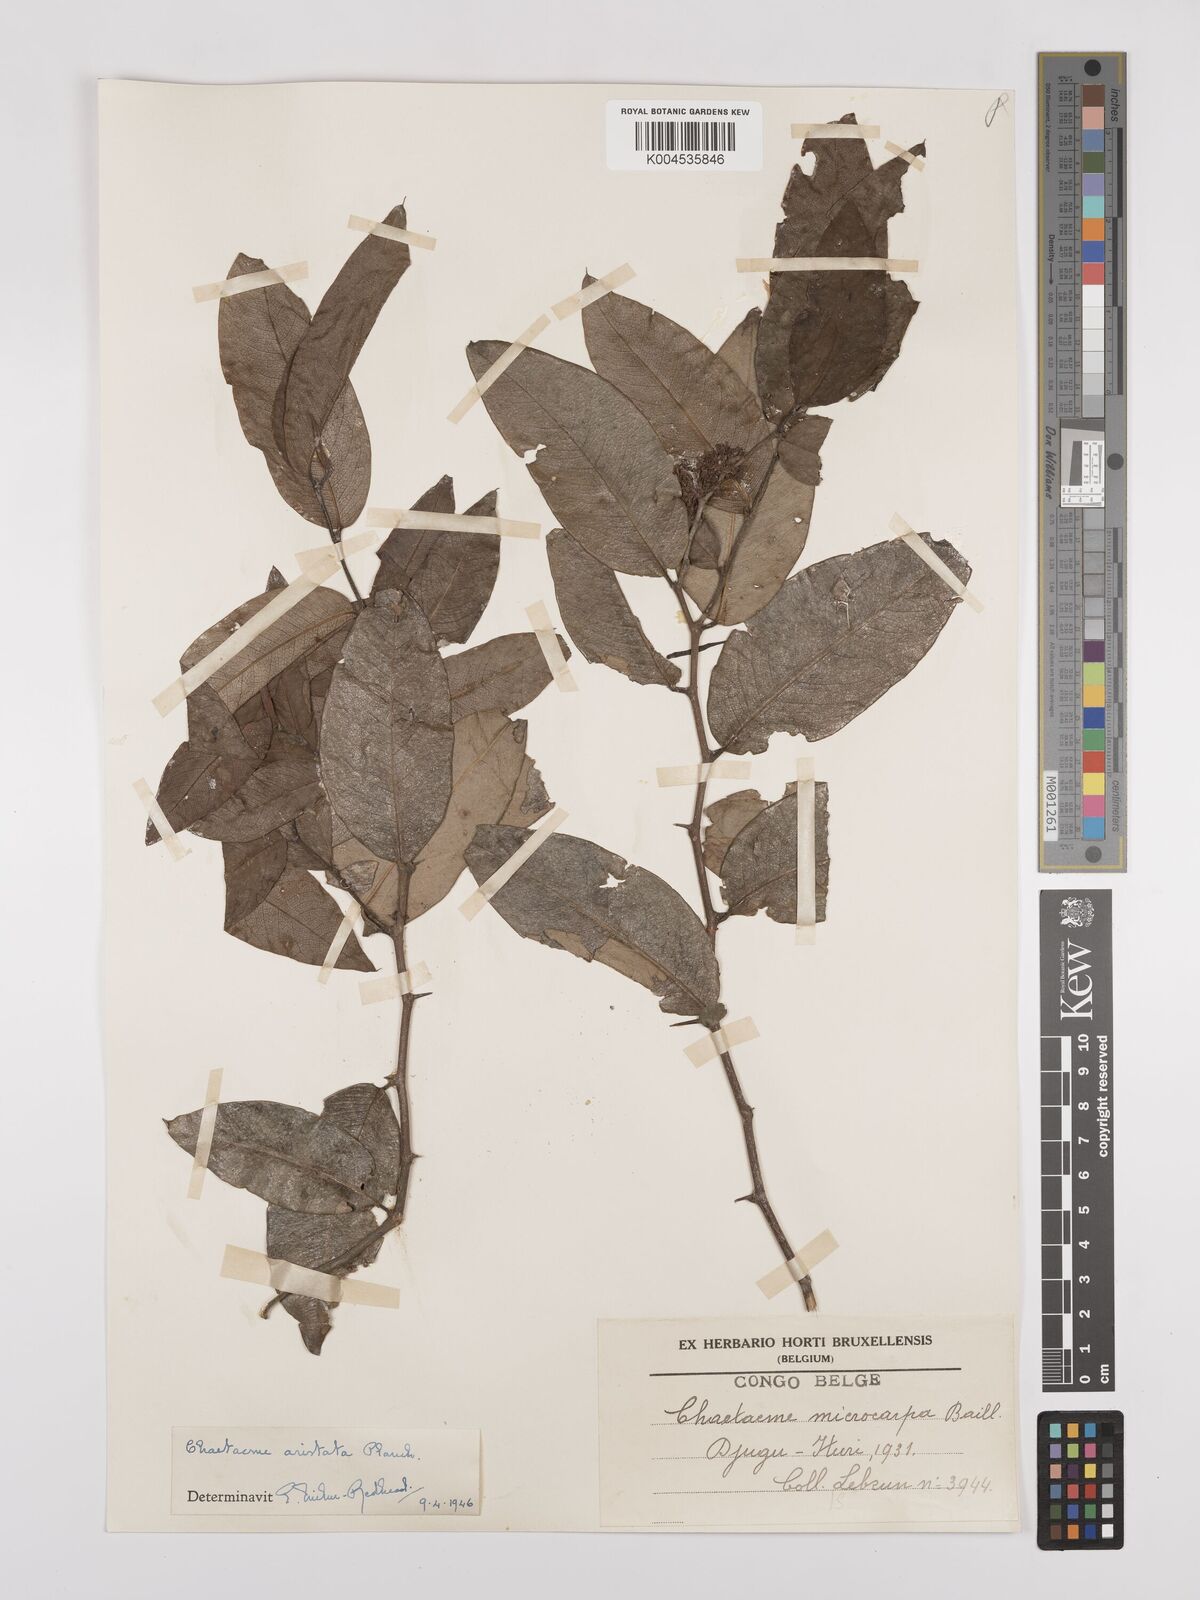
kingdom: Plantae
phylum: Tracheophyta
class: Magnoliopsida
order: Rosales
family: Cannabaceae
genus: Chaetachme
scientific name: Chaetachme aristata
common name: Thorny elm
